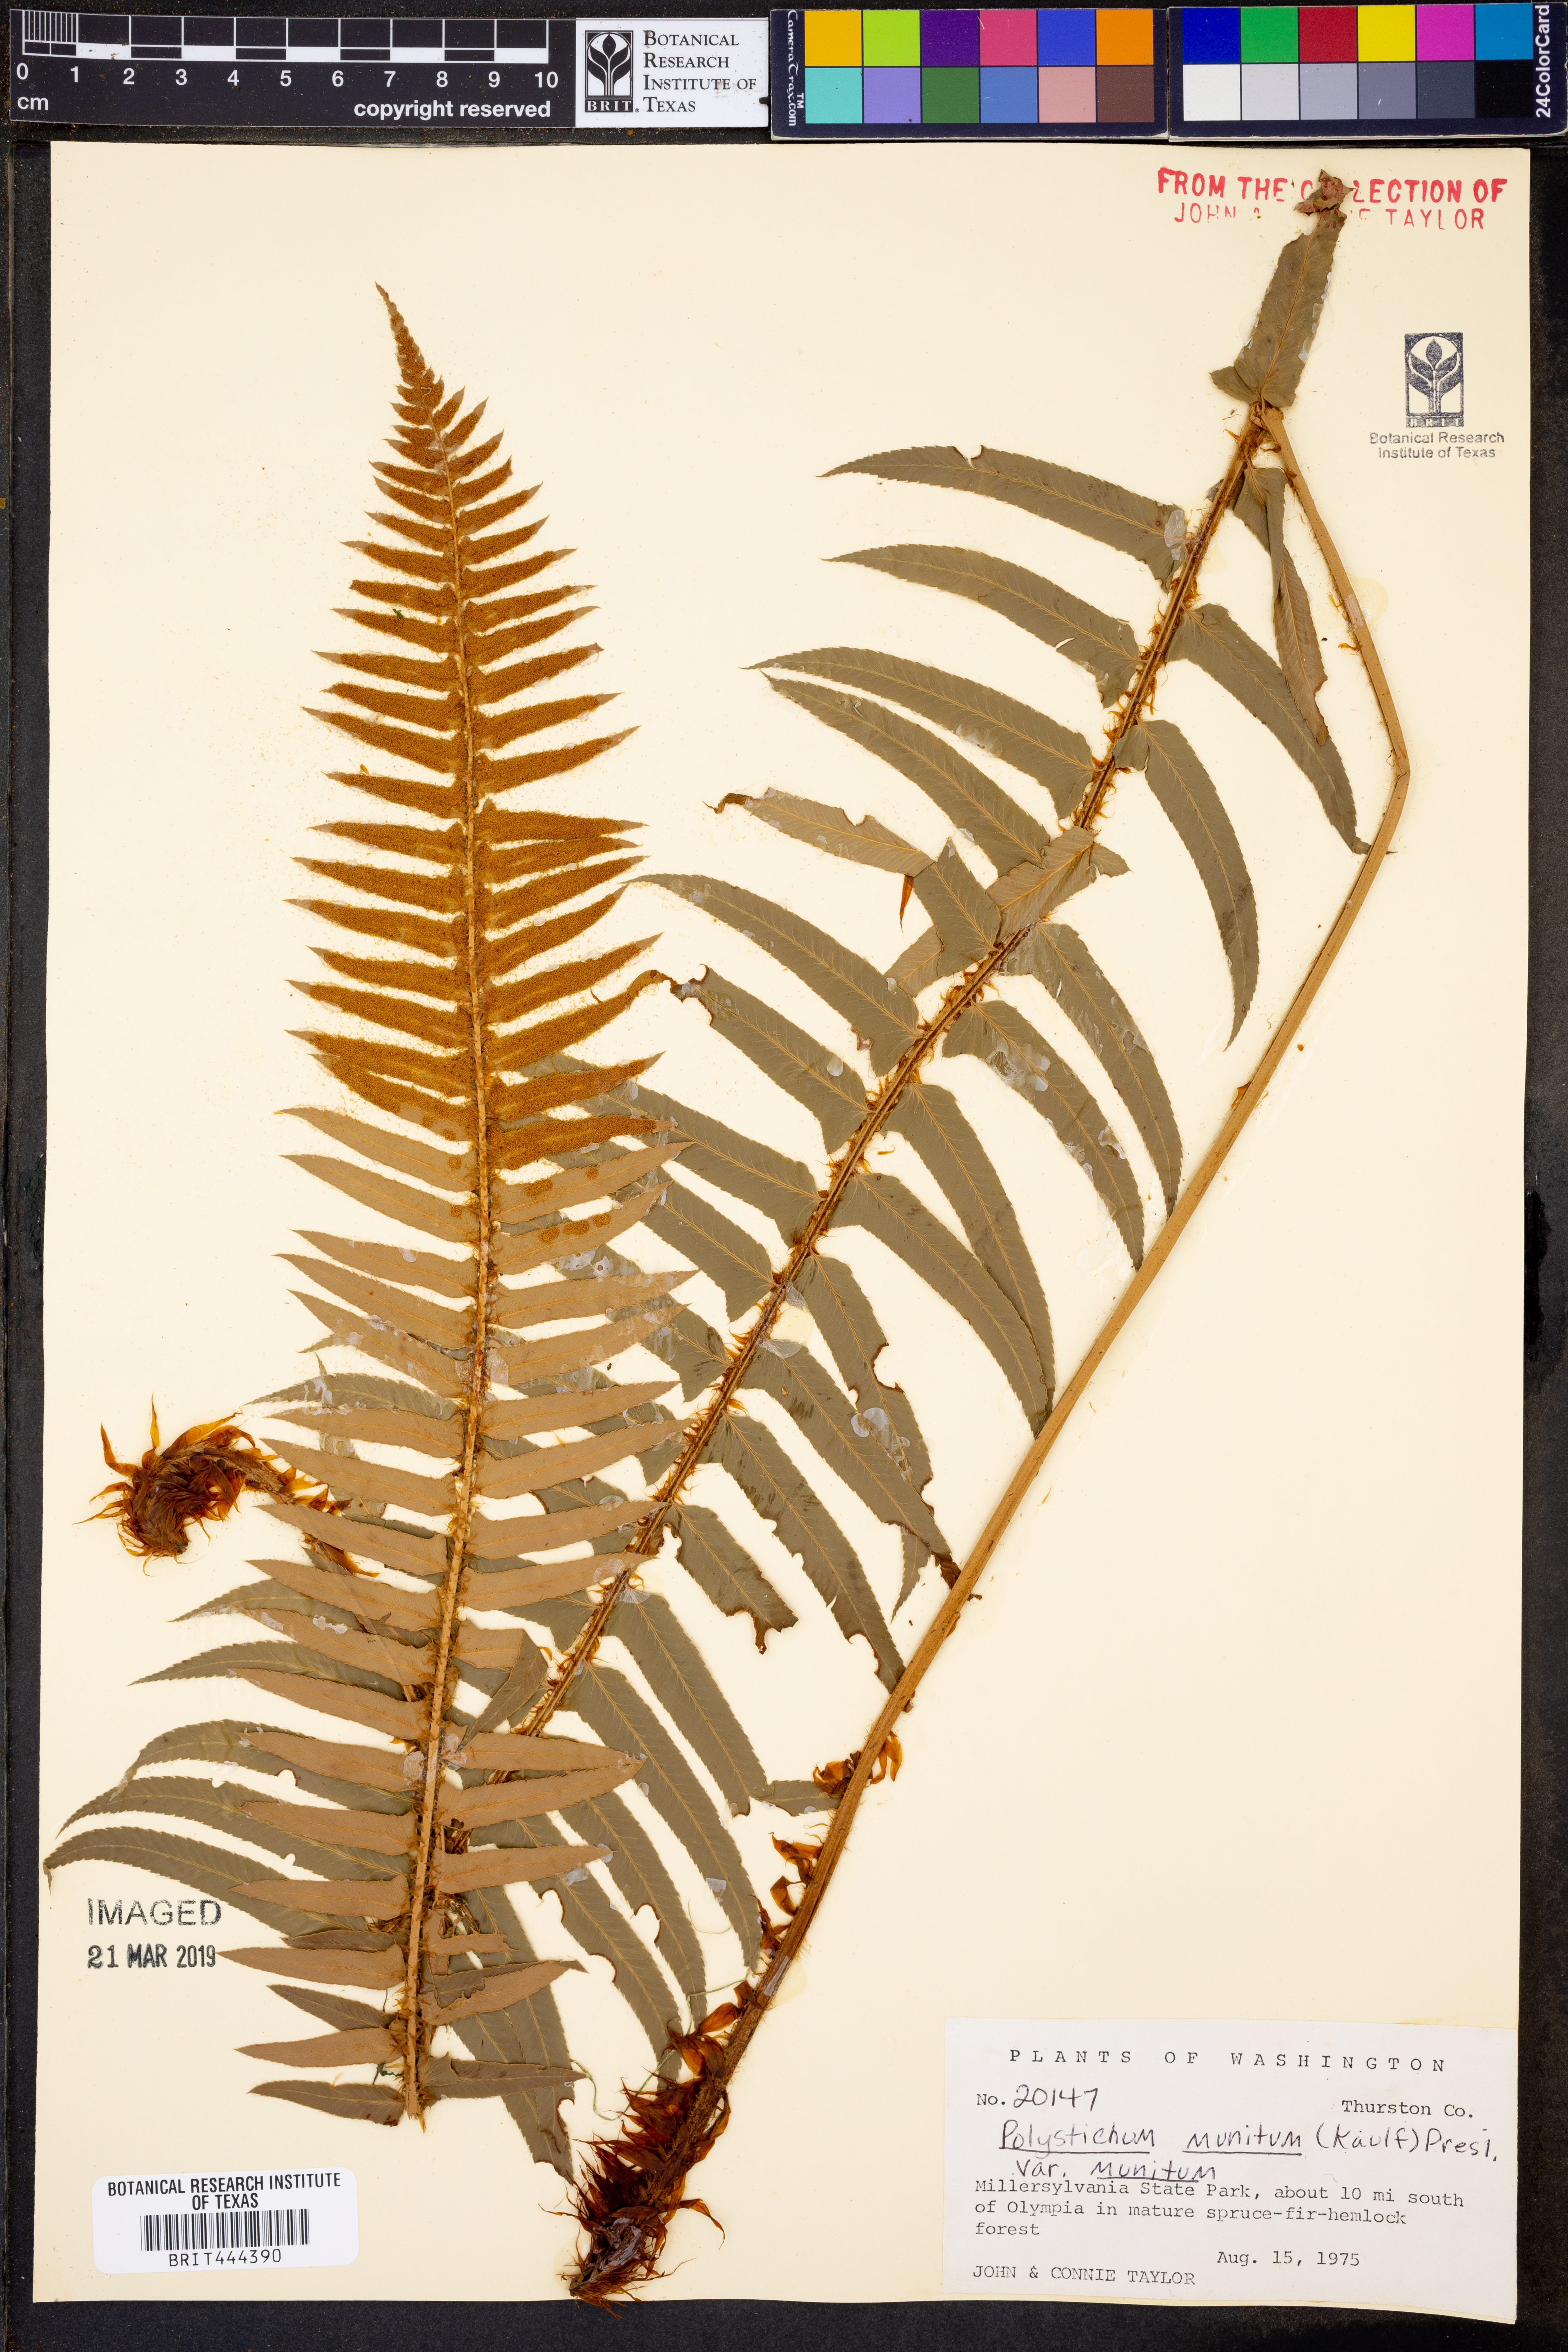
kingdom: Plantae
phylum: Tracheophyta
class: Polypodiopsida
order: Polypodiales
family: Dryopteridaceae
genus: Polystichum
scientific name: Polystichum munitum
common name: Western sword-fern
